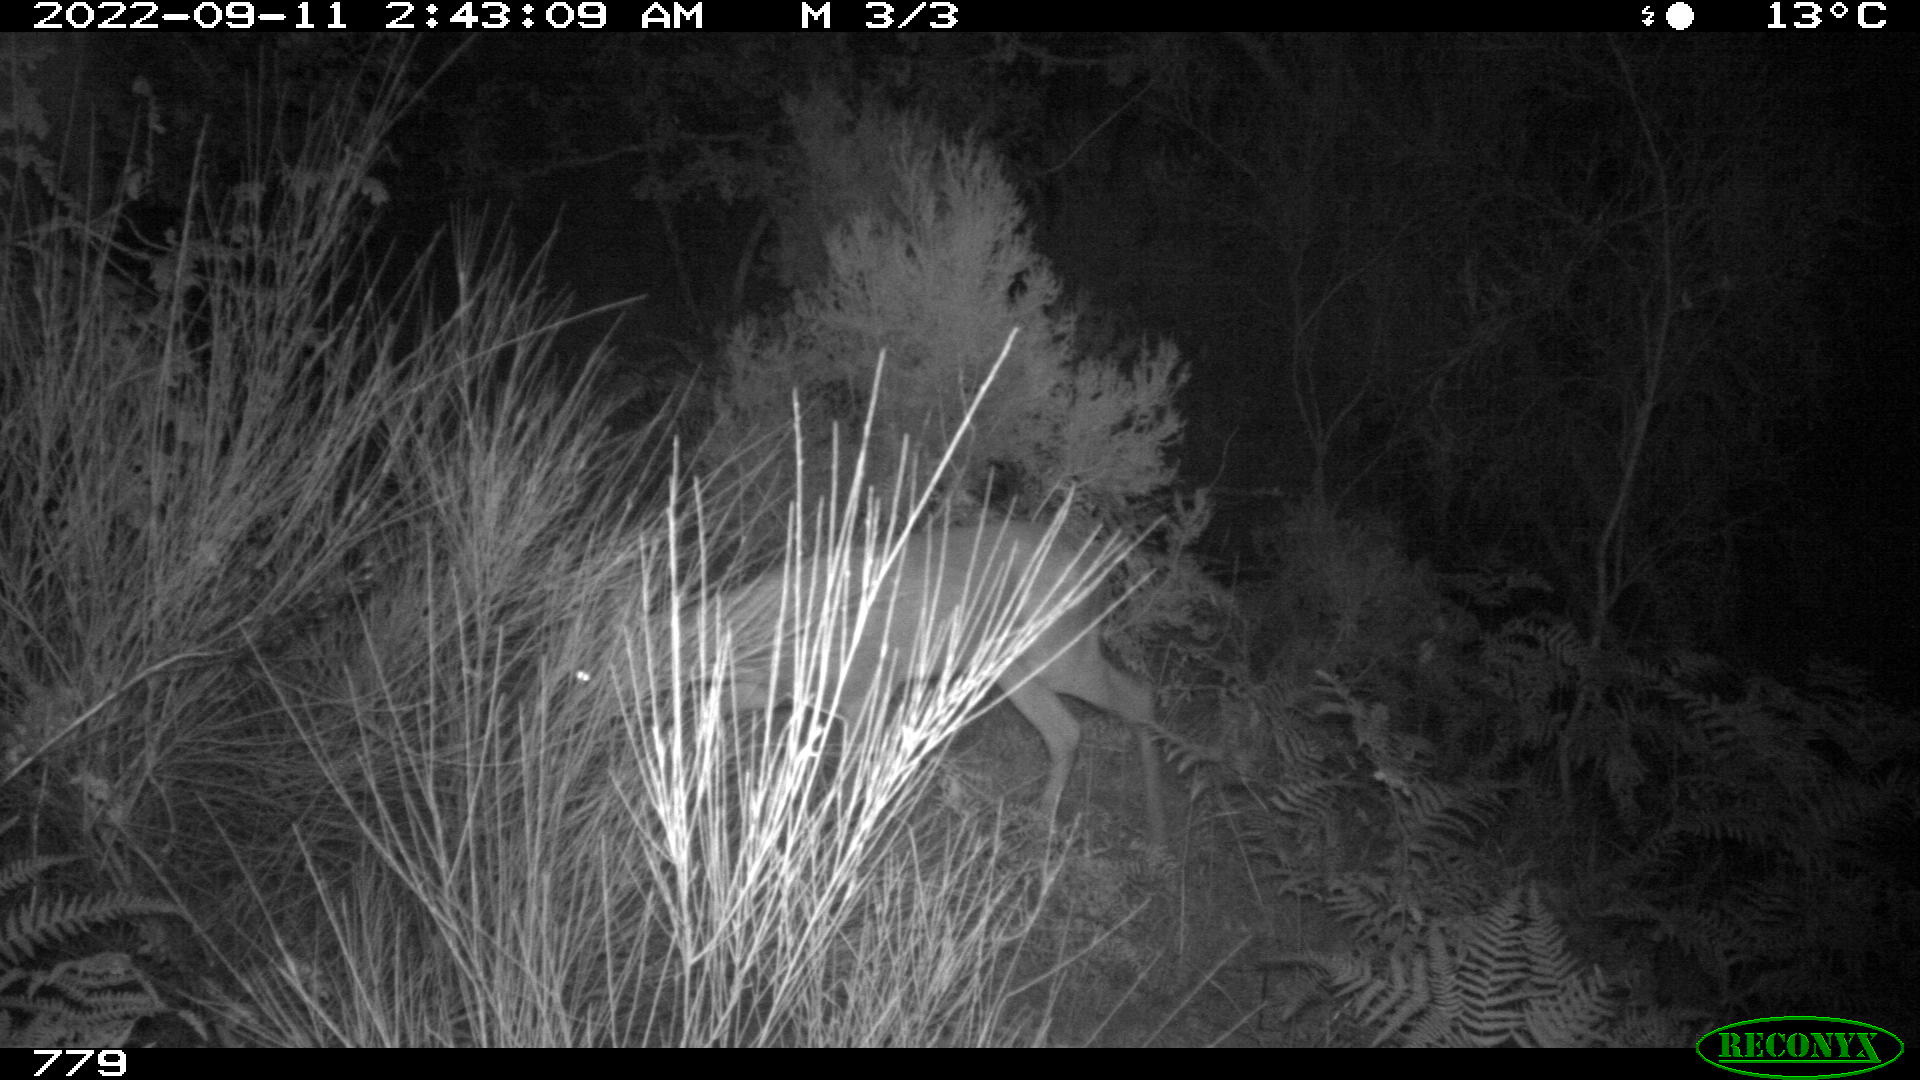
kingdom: Animalia
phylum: Chordata
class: Mammalia
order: Artiodactyla
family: Cervidae
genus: Capreolus
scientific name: Capreolus capreolus
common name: Western roe deer
